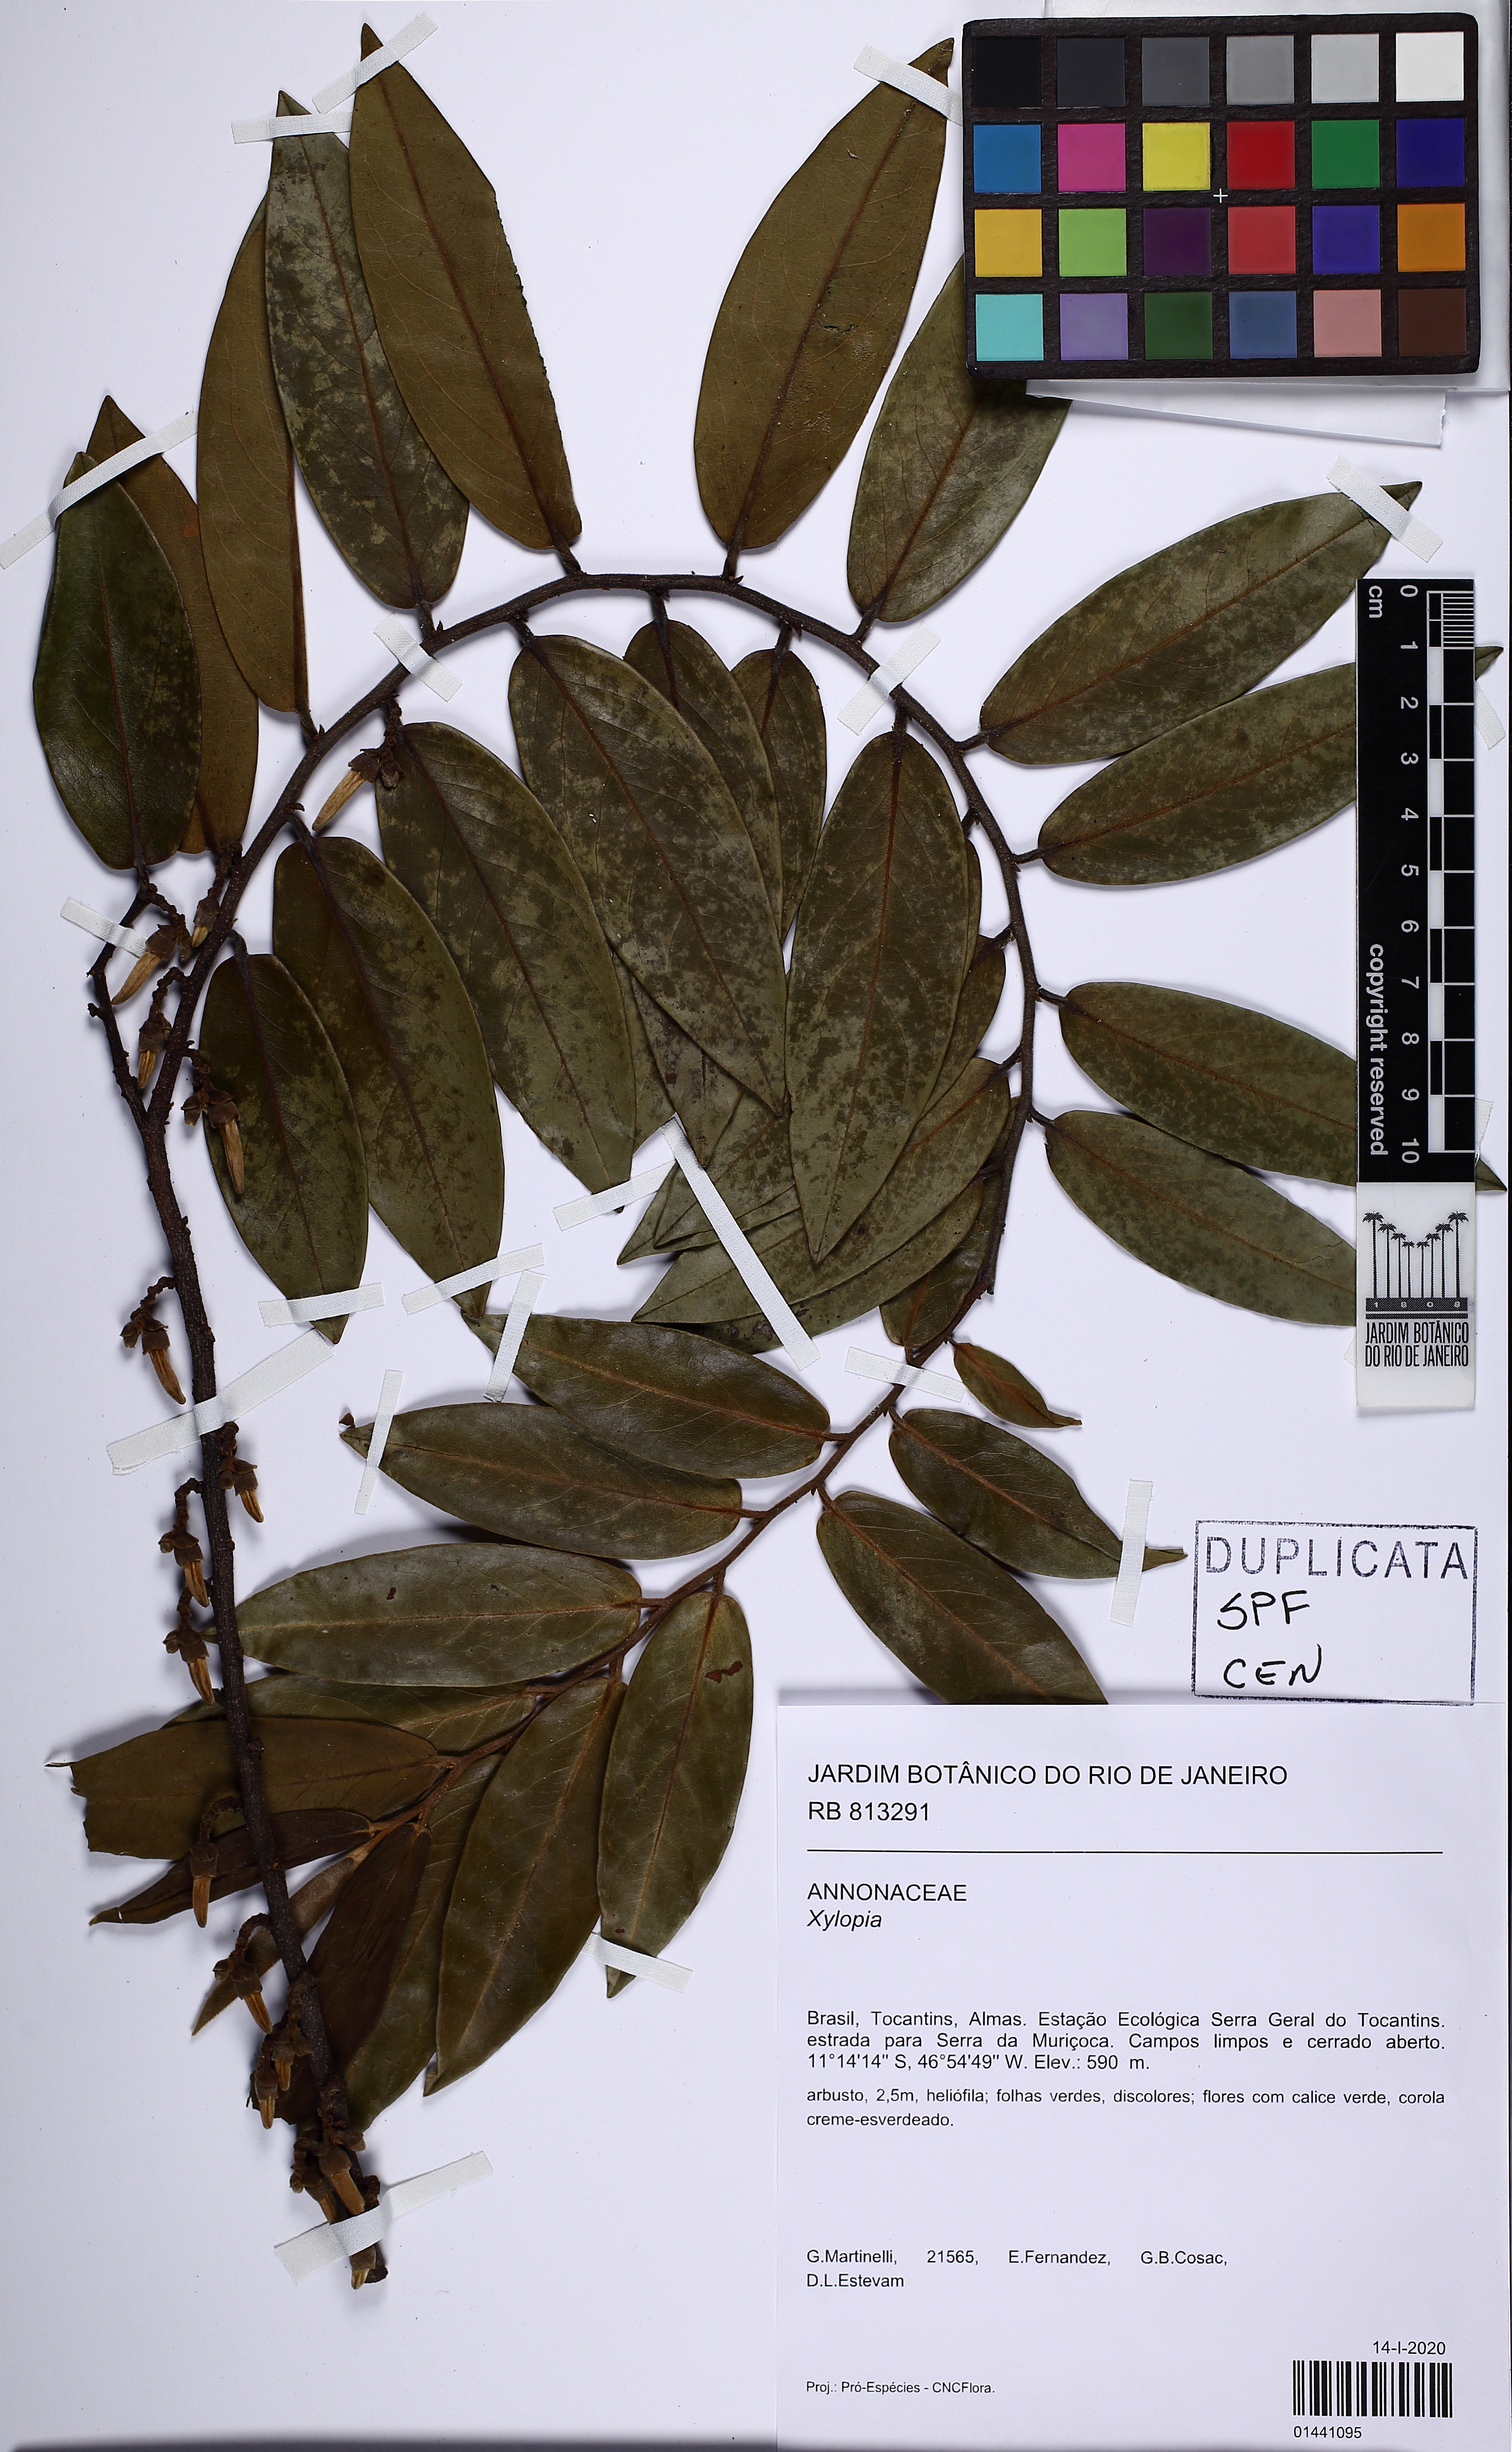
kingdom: Plantae
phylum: Tracheophyta
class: Magnoliopsida
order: Magnoliales
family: Annonaceae
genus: Xylopia
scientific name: Xylopia
